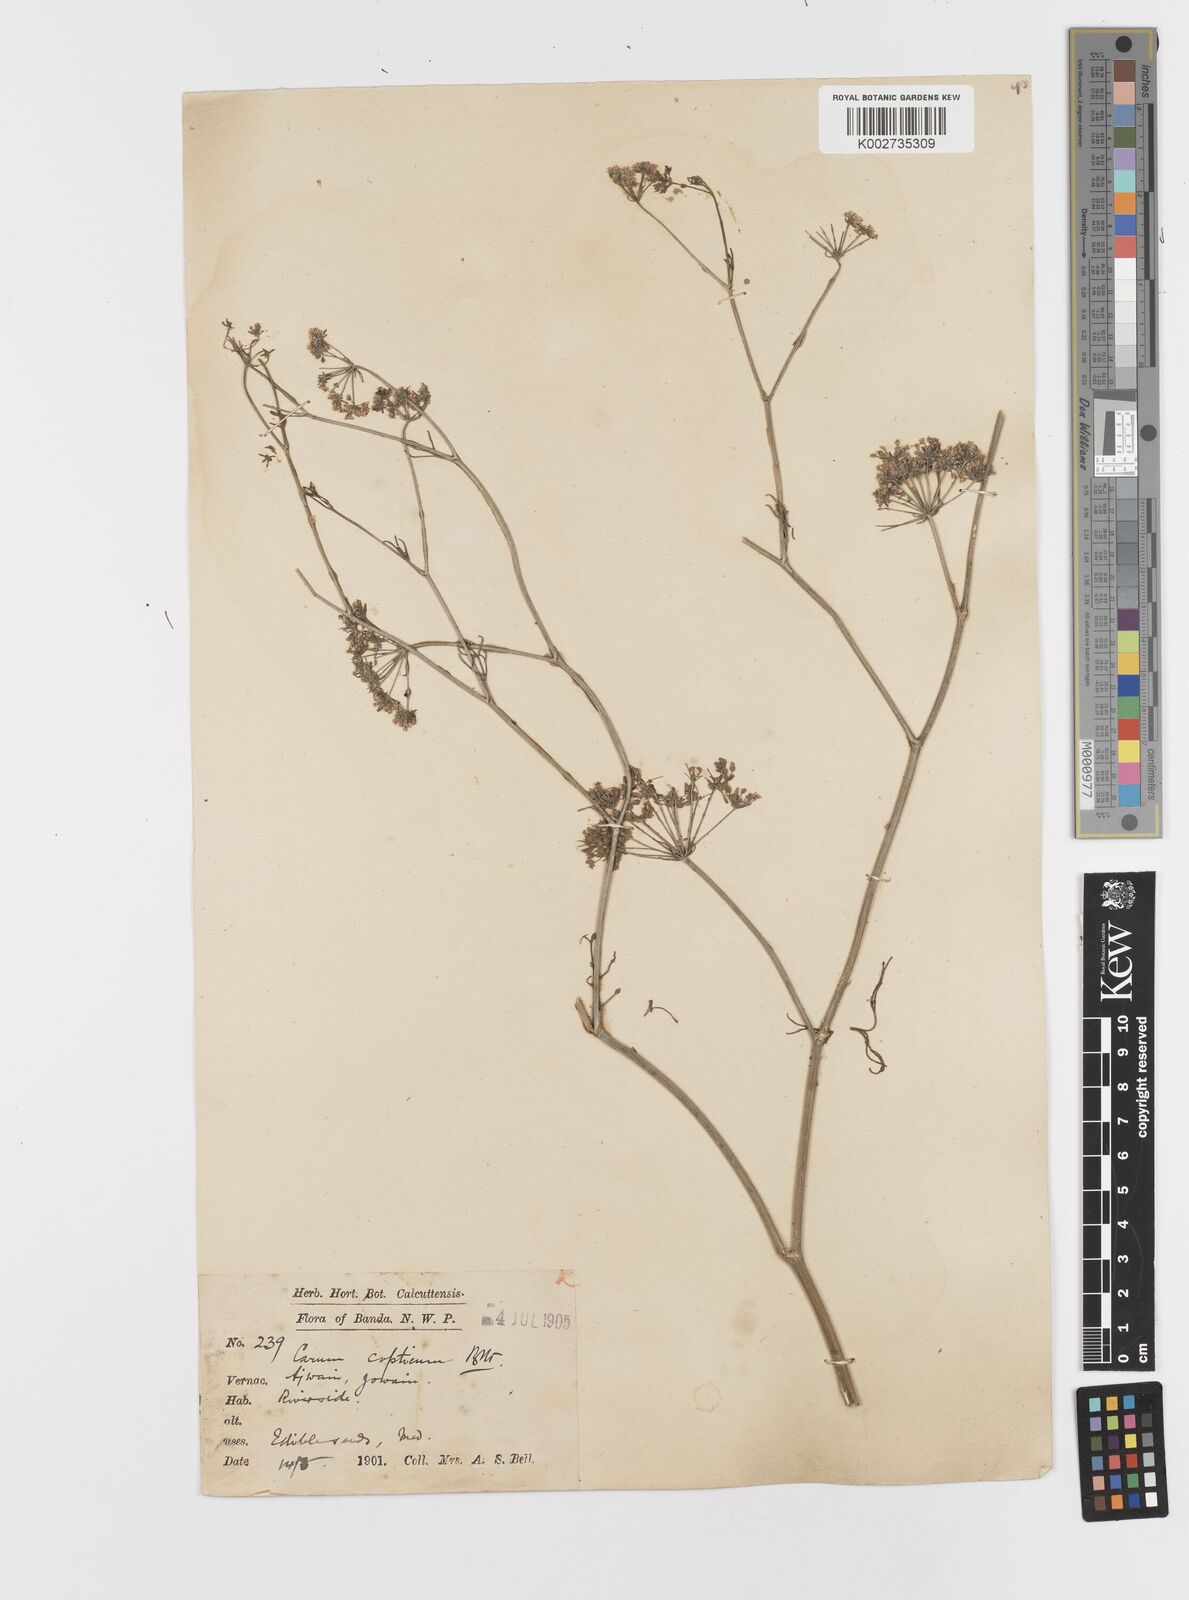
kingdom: Plantae
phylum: Tracheophyta
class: Magnoliopsida
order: Apiales
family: Apiaceae
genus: Trachyspermum
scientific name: Trachyspermum ammi
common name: Ajowan
